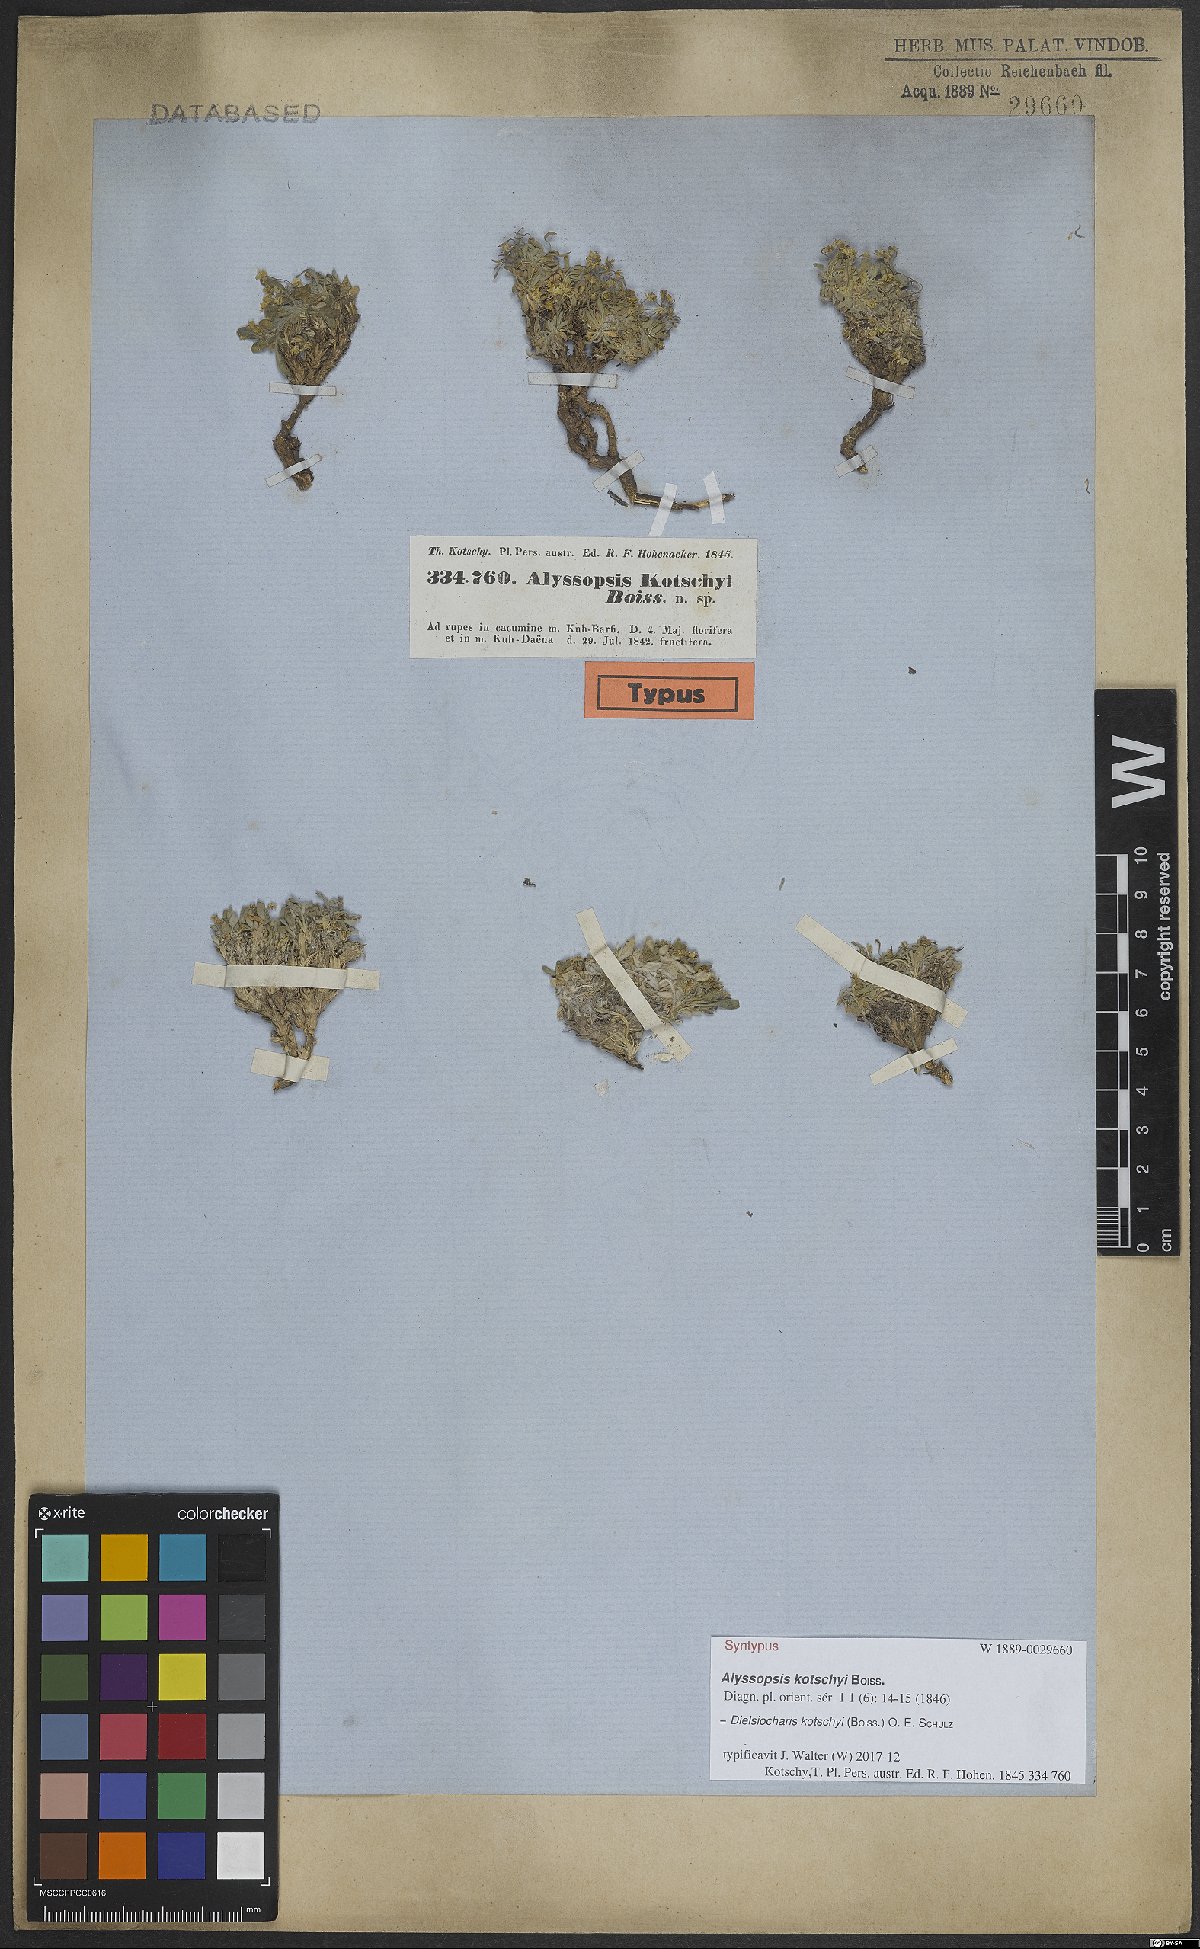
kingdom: Plantae
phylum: Tracheophyta
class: Magnoliopsida
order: Brassicales
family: Brassicaceae
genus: Dielsiocharis
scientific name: Dielsiocharis kotschyi
